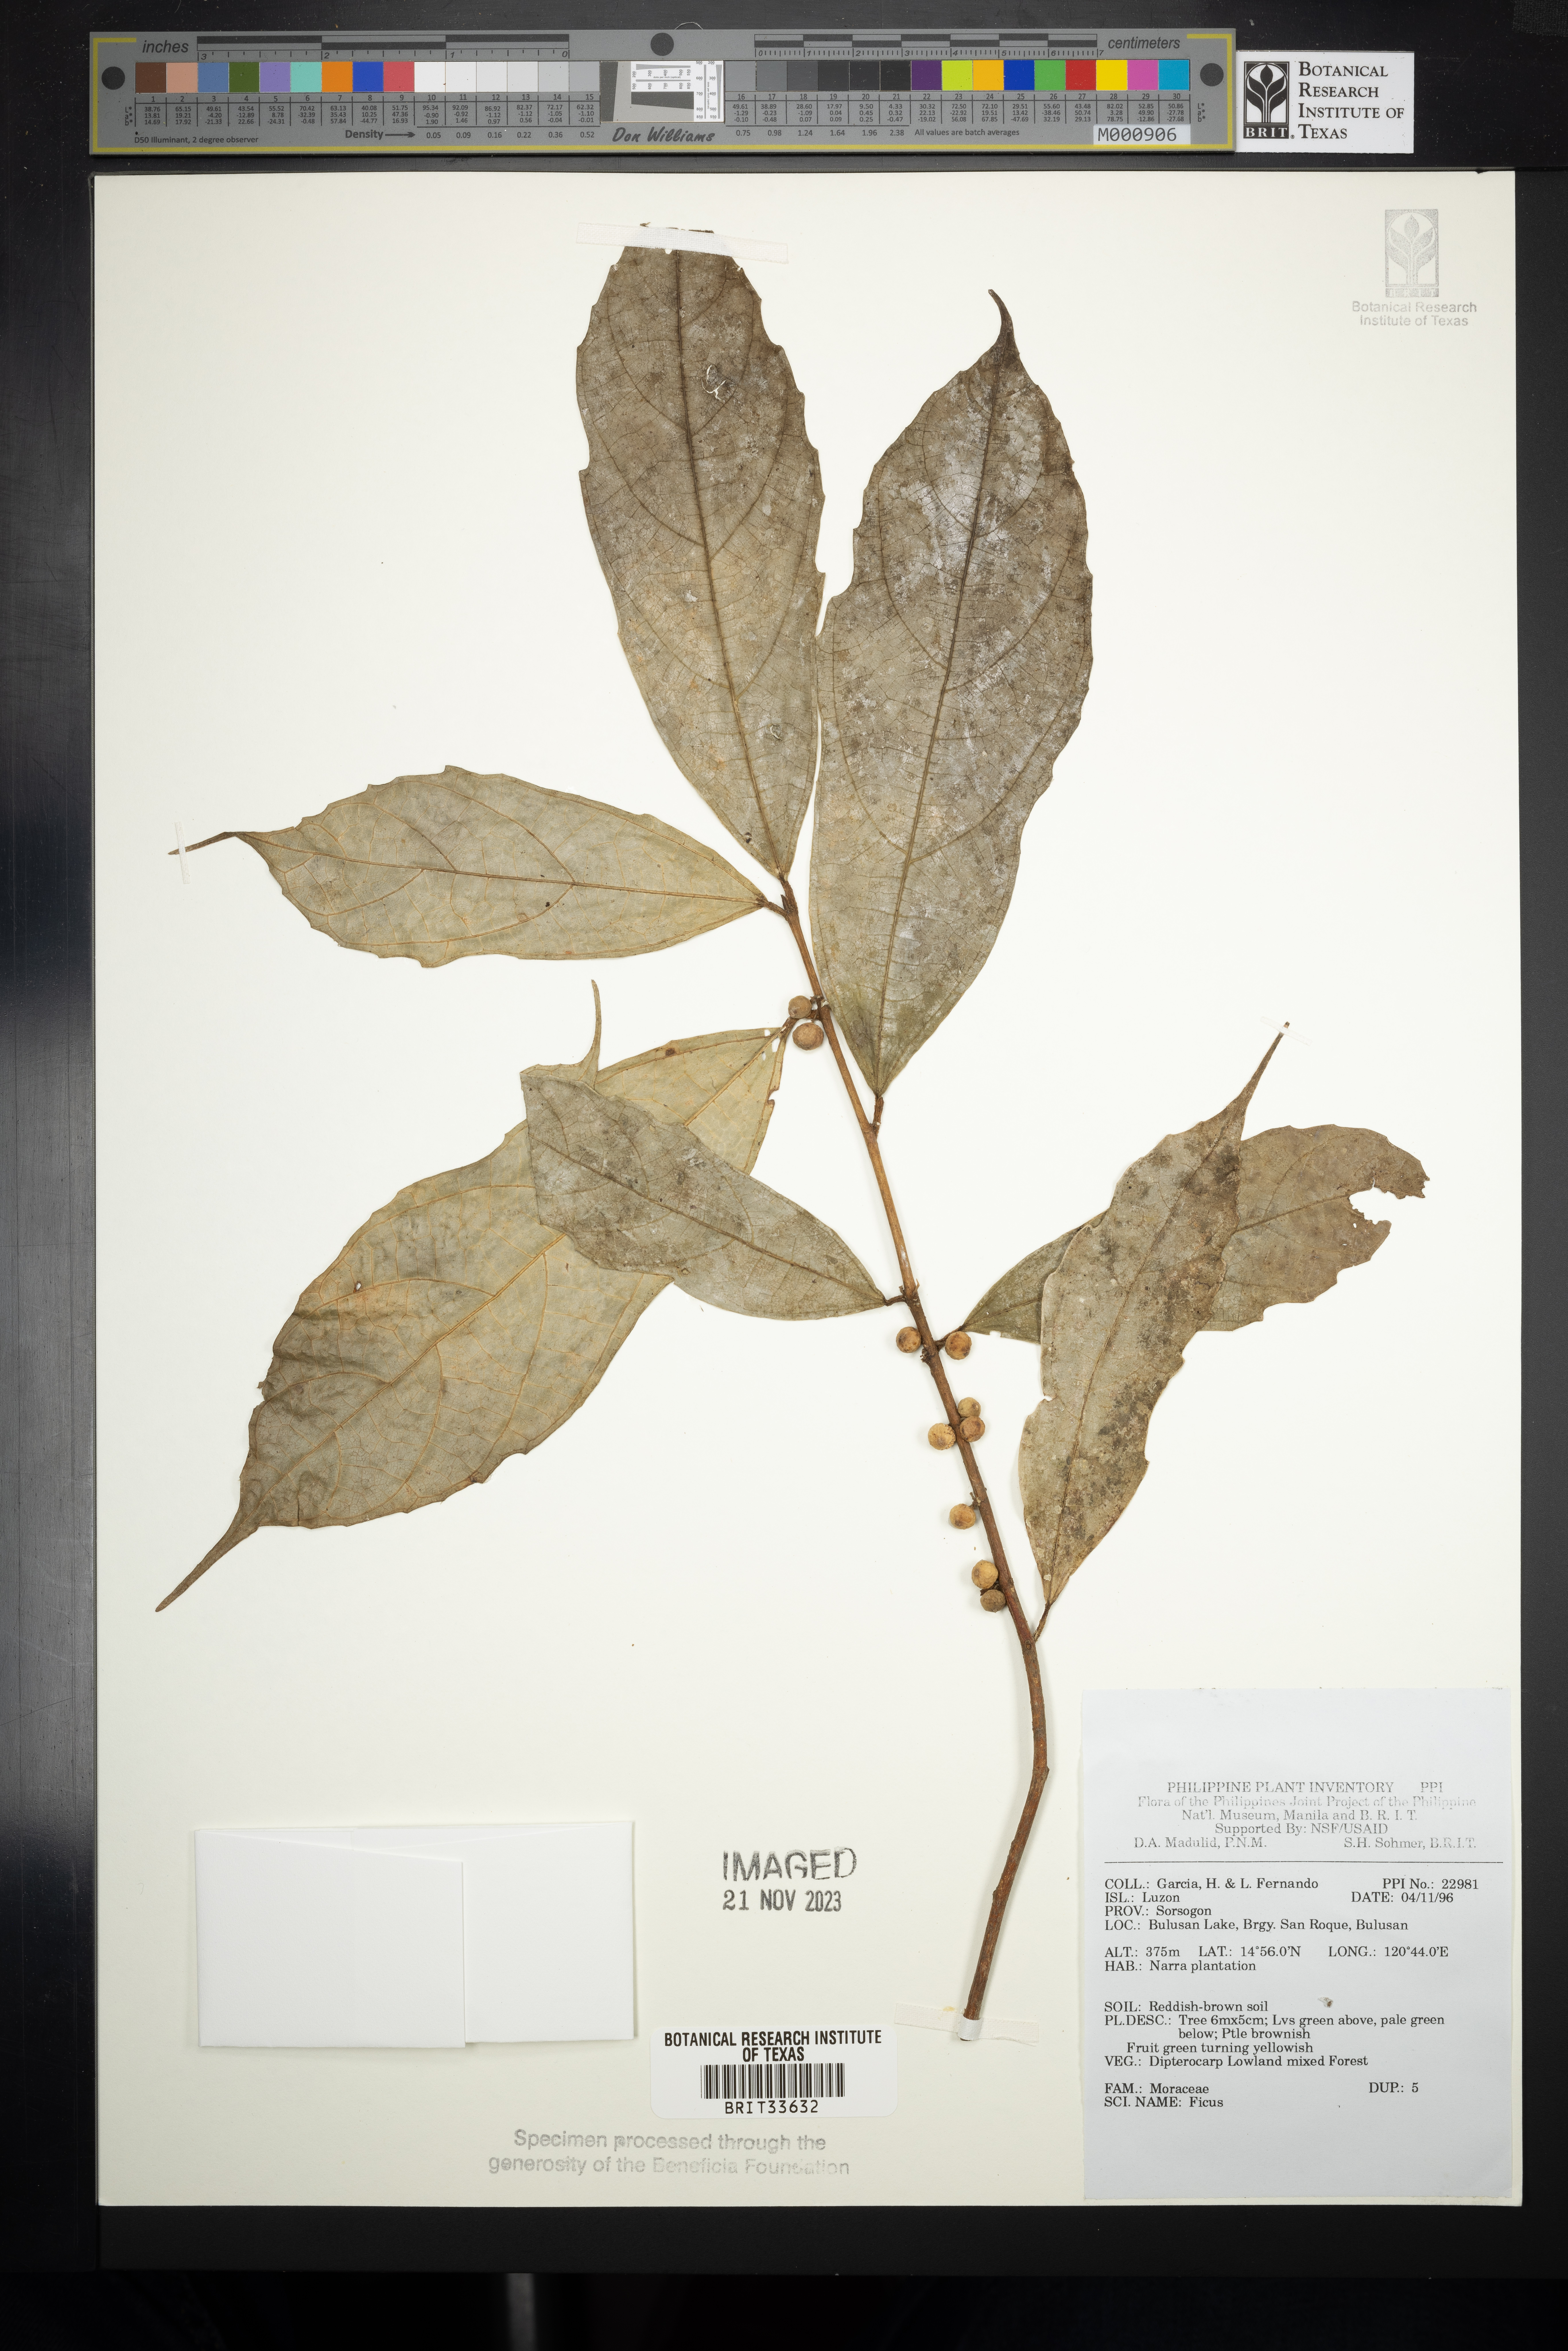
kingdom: Plantae
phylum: Tracheophyta
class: Magnoliopsida
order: Rosales
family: Moraceae
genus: Ficus
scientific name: Ficus
